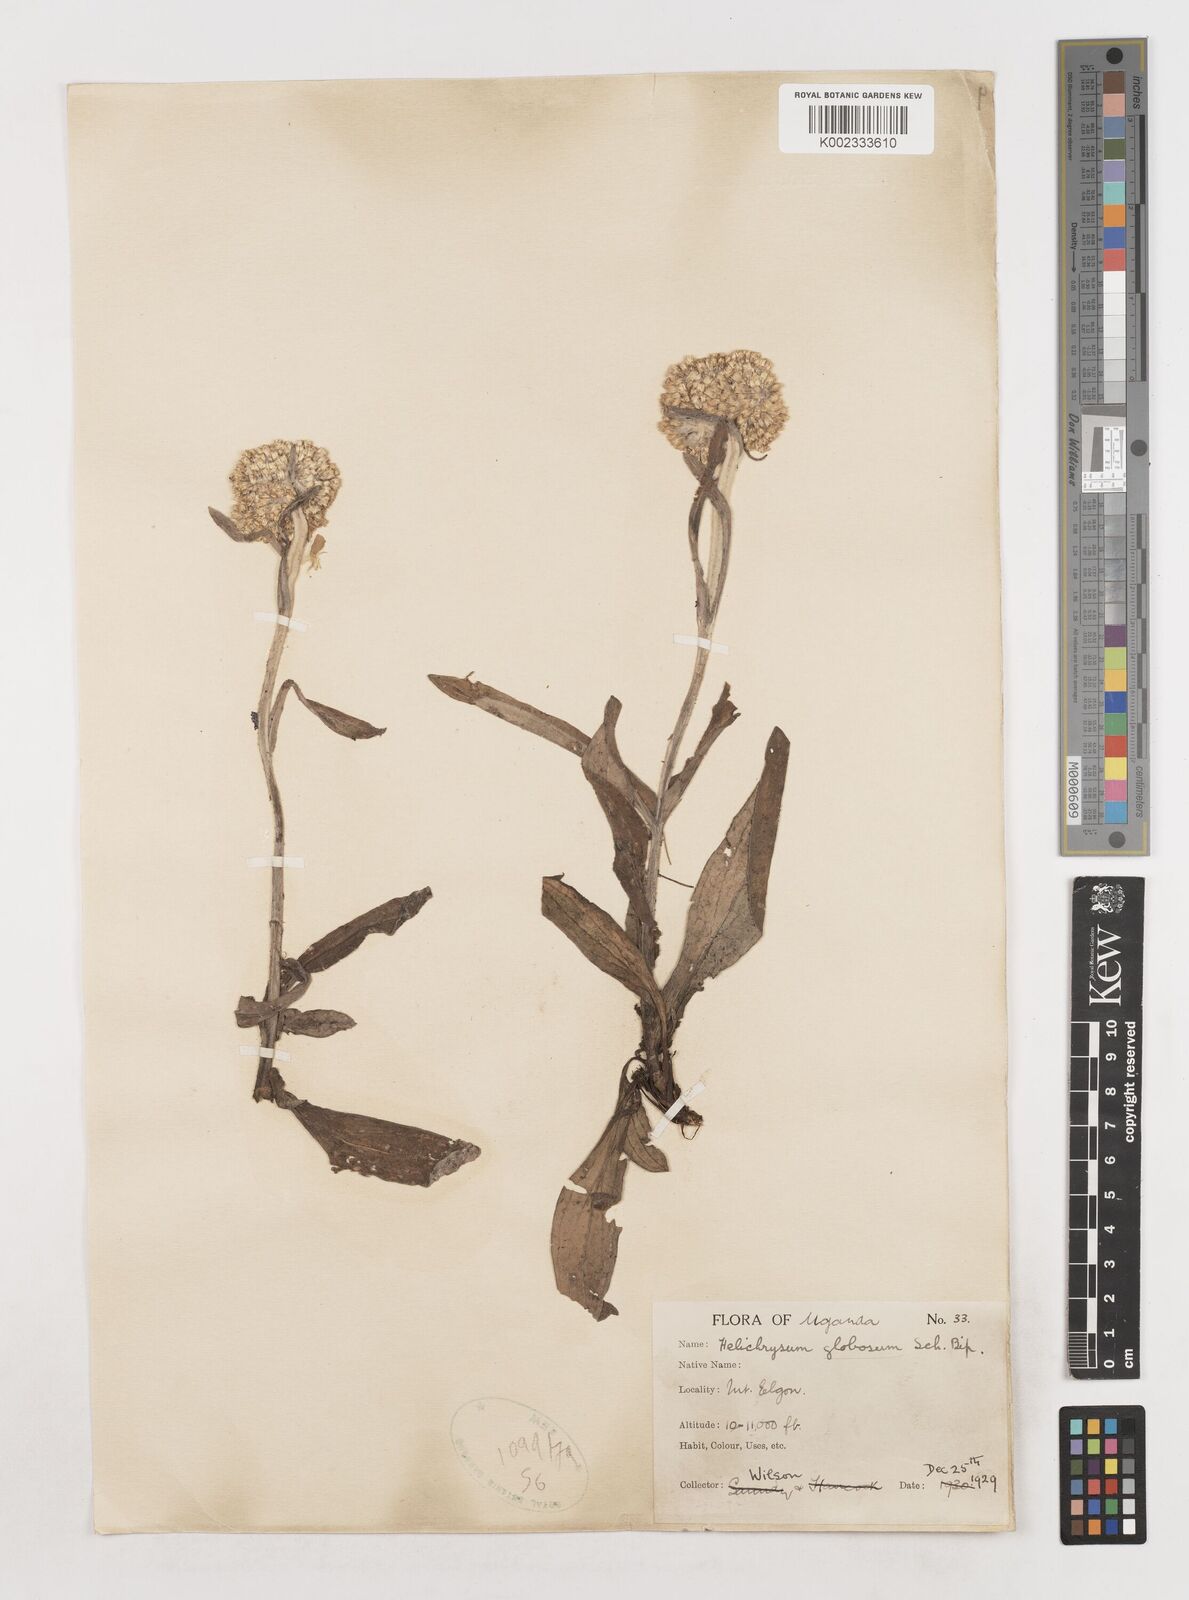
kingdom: Plantae
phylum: Tracheophyta
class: Magnoliopsida
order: Asterales
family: Asteraceae
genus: Helichrysum
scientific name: Helichrysum globosum
